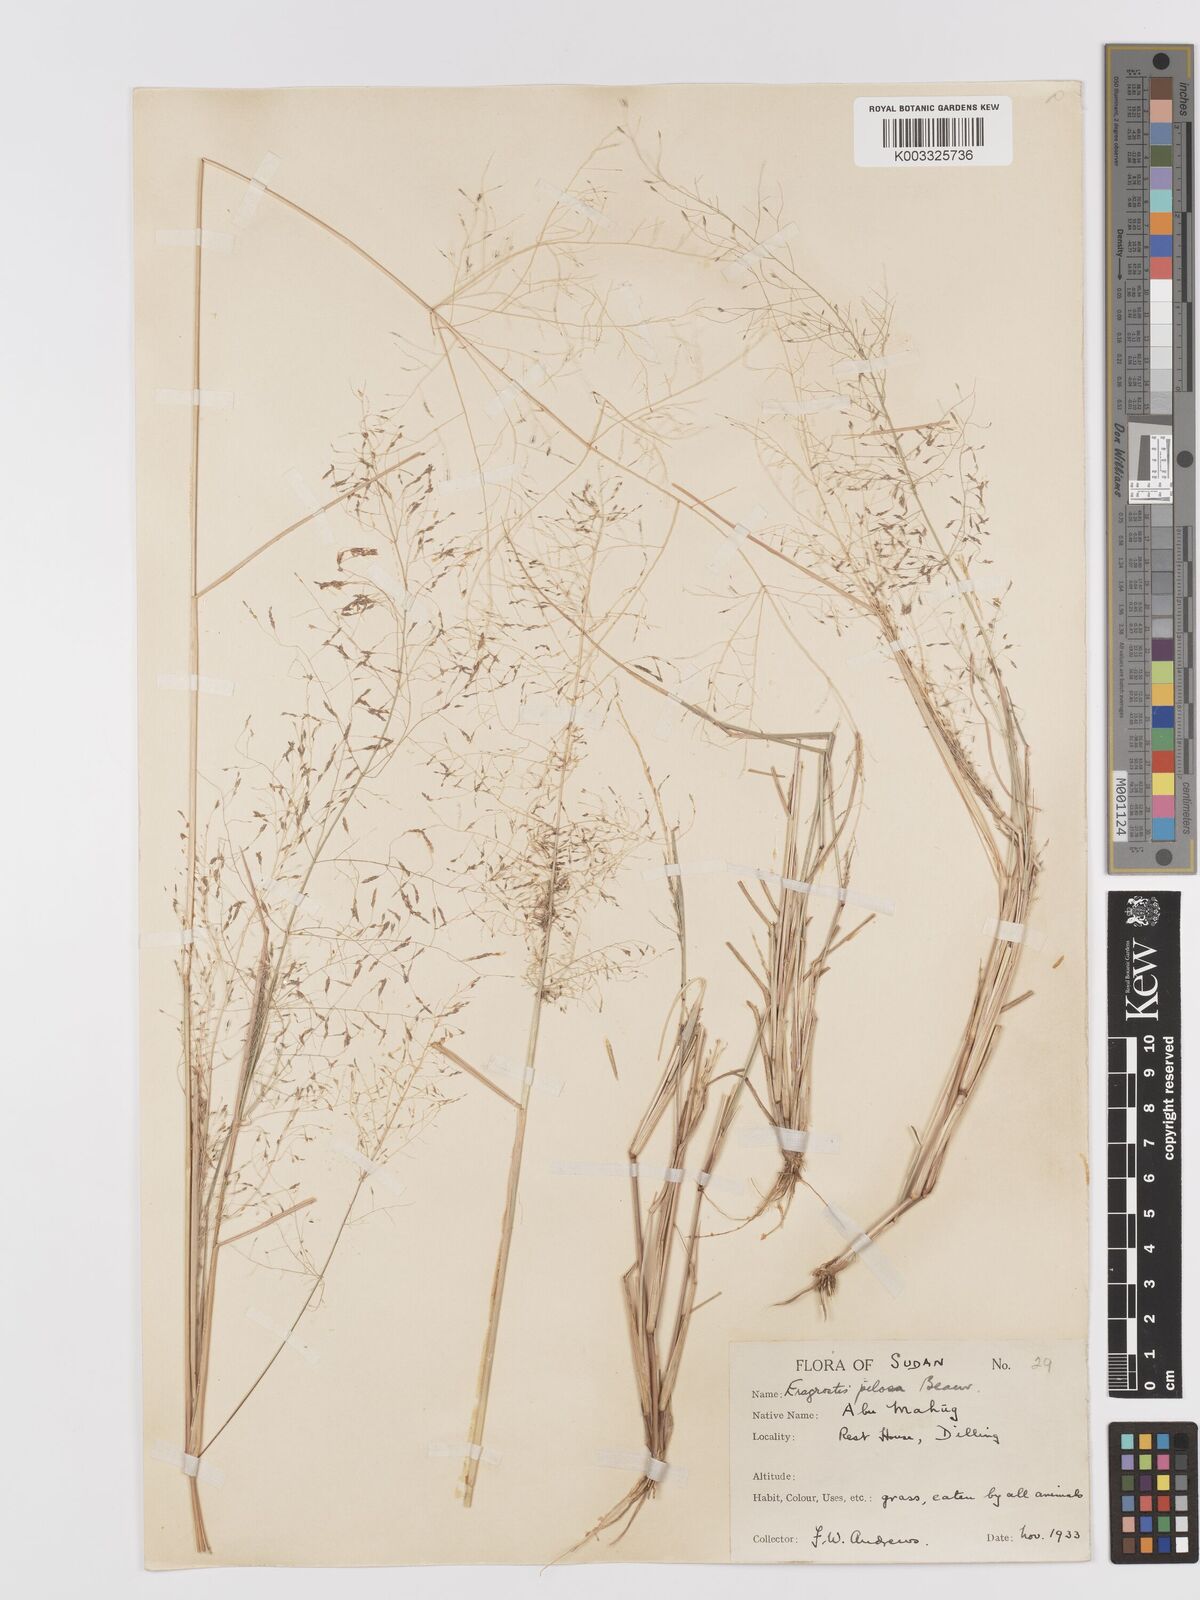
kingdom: Plantae
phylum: Tracheophyta
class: Liliopsida
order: Poales
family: Poaceae
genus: Eragrostis
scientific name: Eragrostis pilosa
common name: Indian lovegrass
